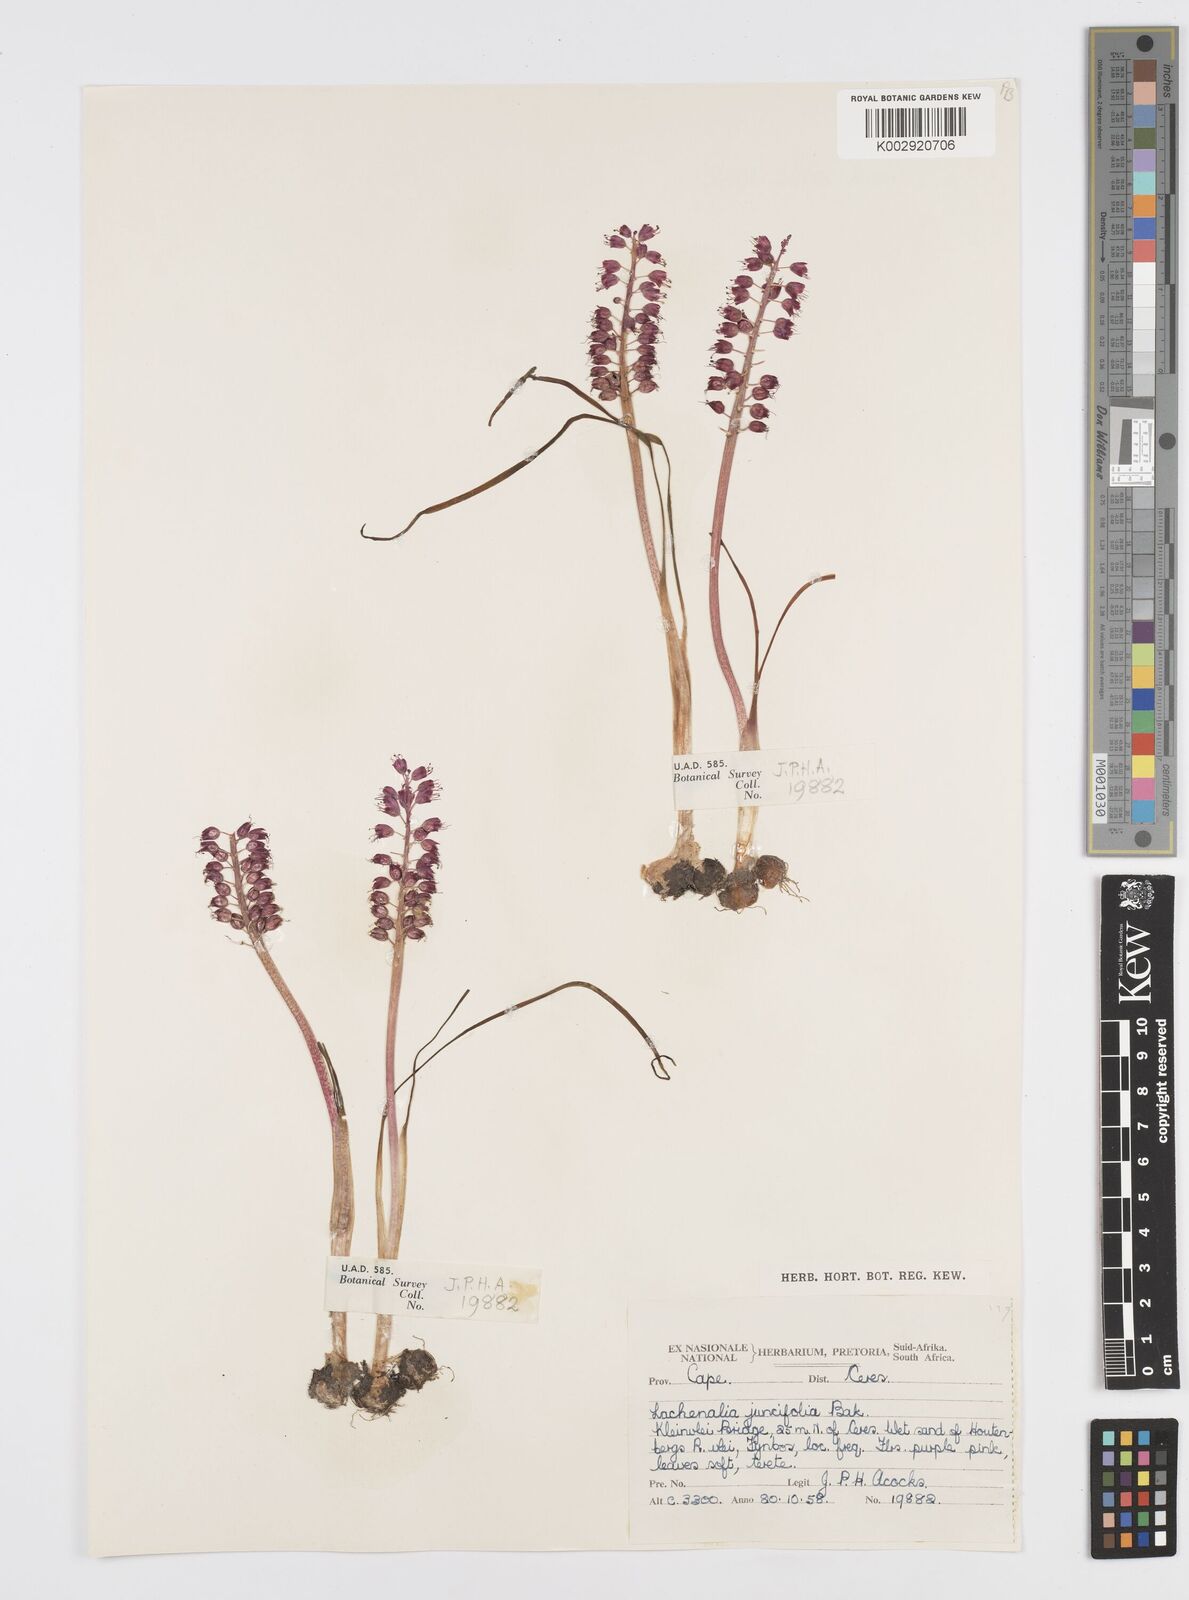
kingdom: Plantae
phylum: Tracheophyta
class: Liliopsida
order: Asparagales
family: Asparagaceae
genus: Lachenalia
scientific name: Lachenalia juncifolia
